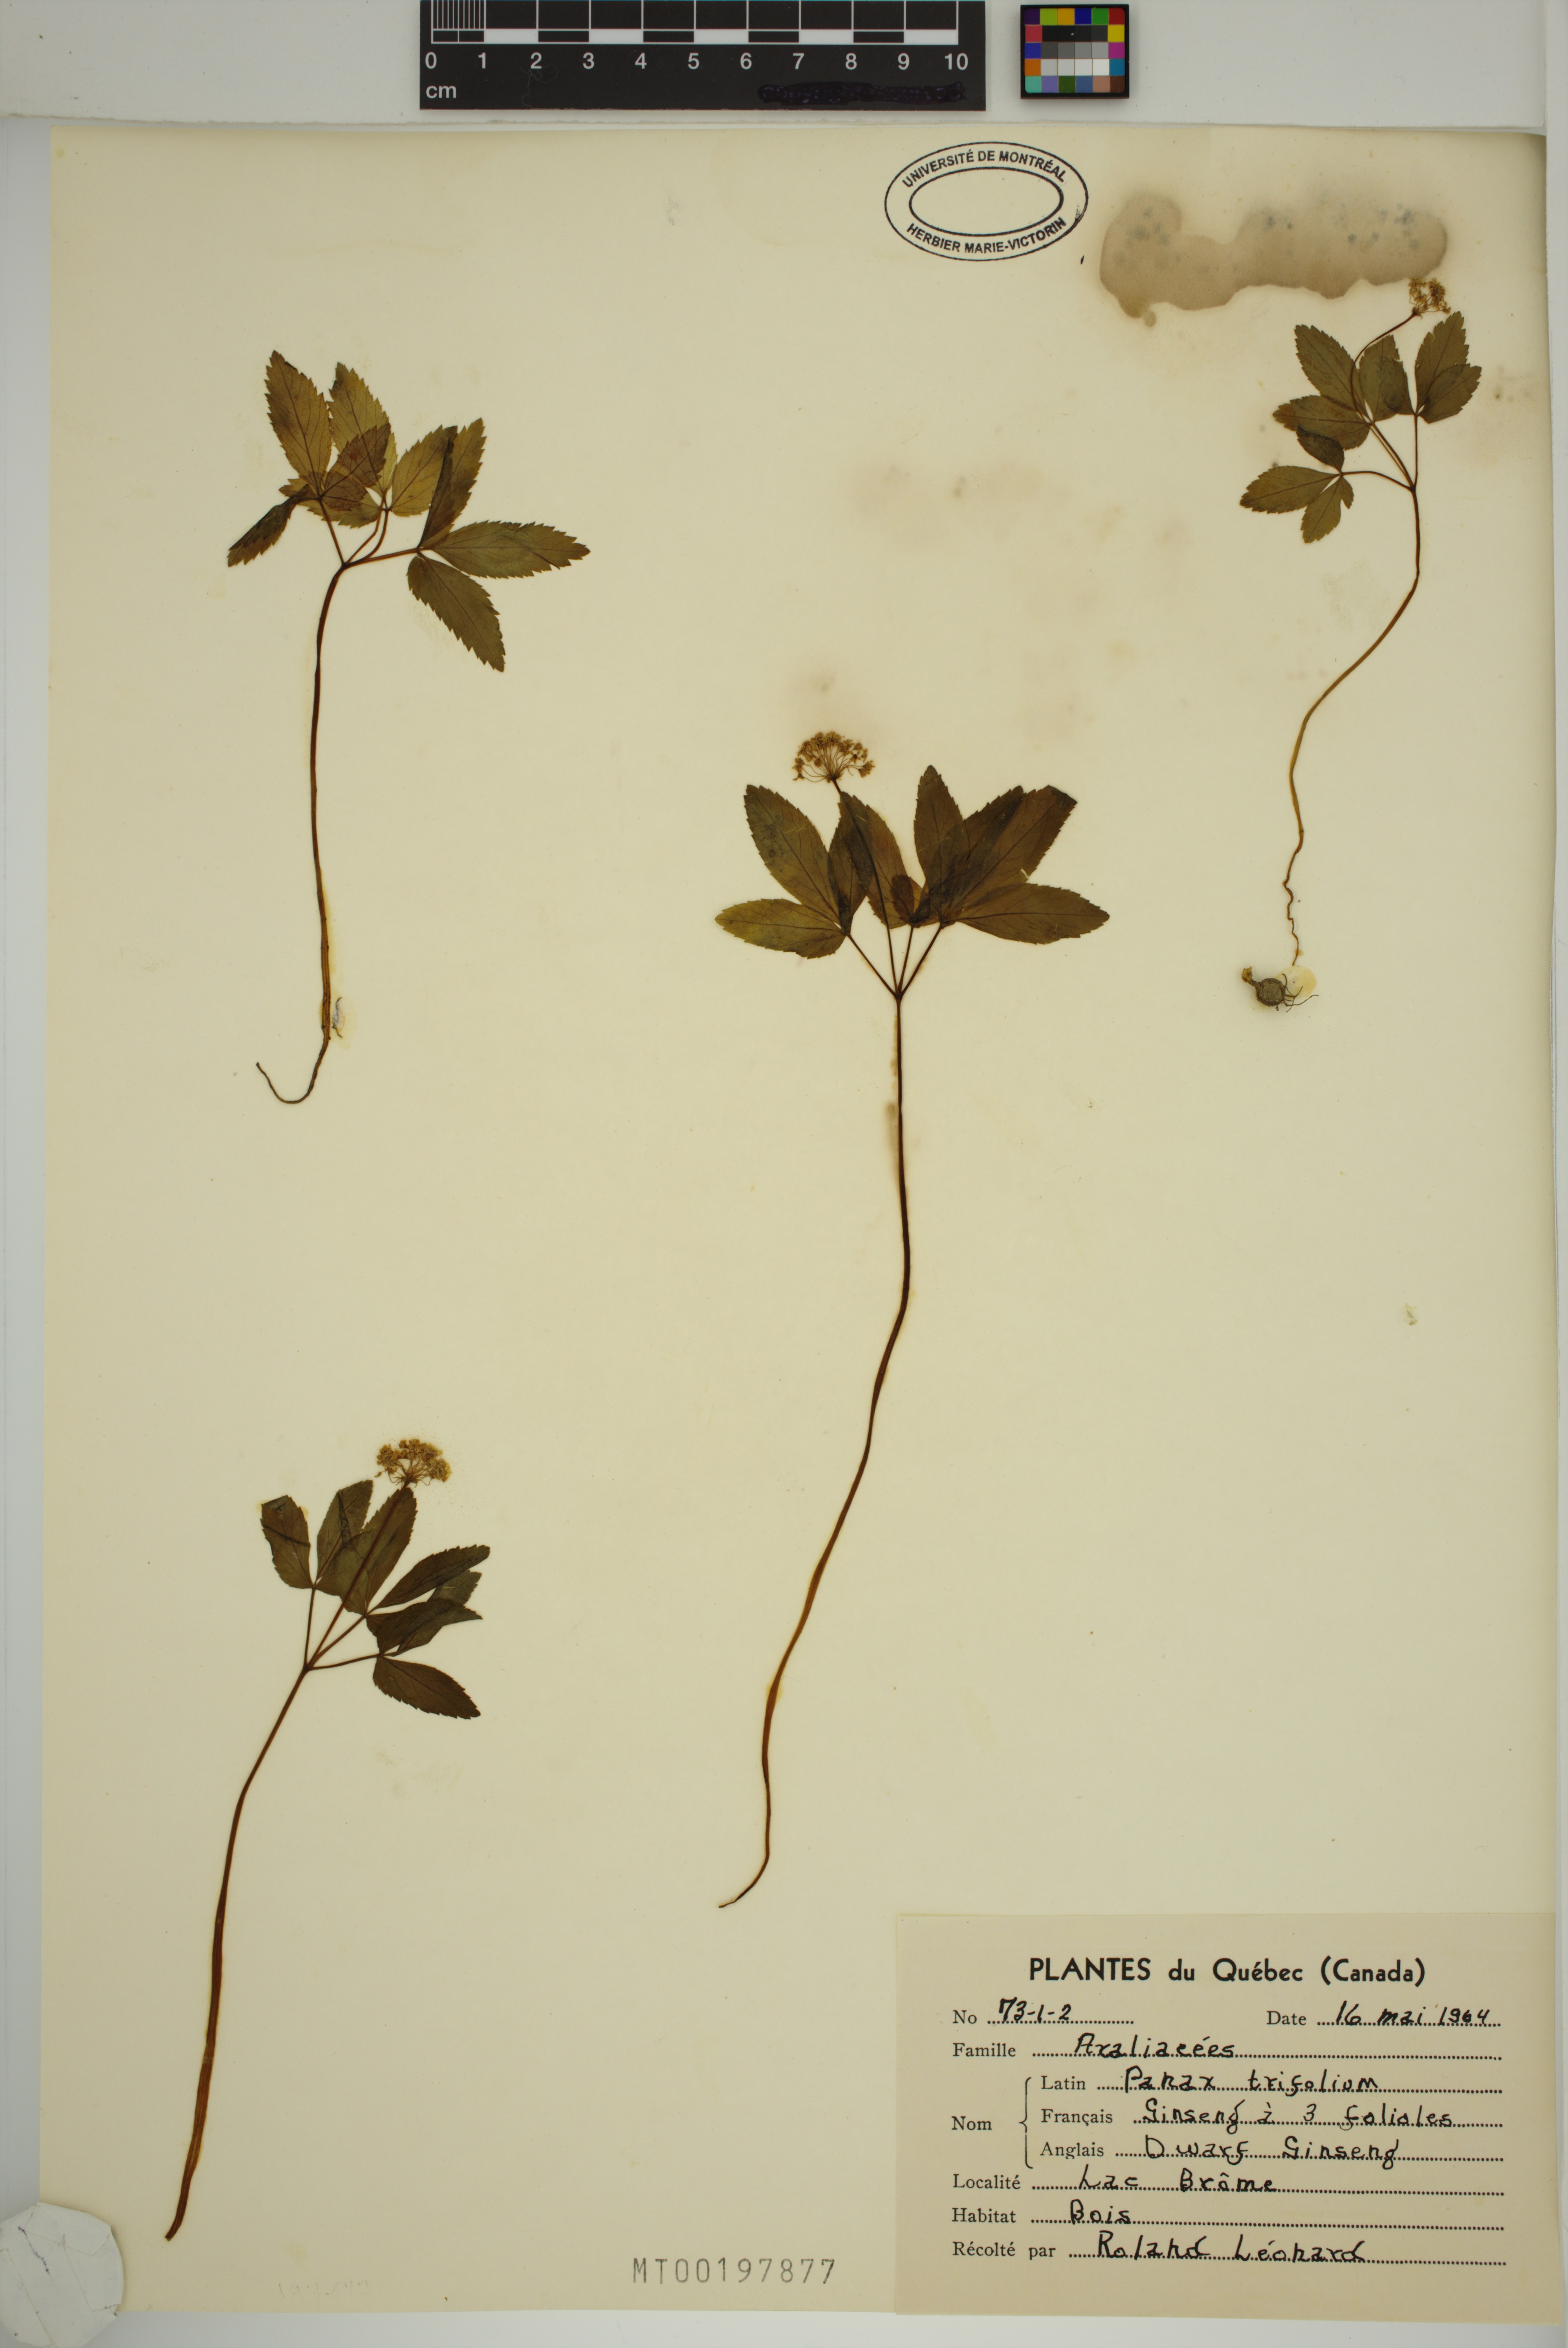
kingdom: Plantae
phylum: Tracheophyta
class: Magnoliopsida
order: Apiales
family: Araliaceae
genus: Panax
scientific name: Panax trifolius
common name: Dwarf ginseng
